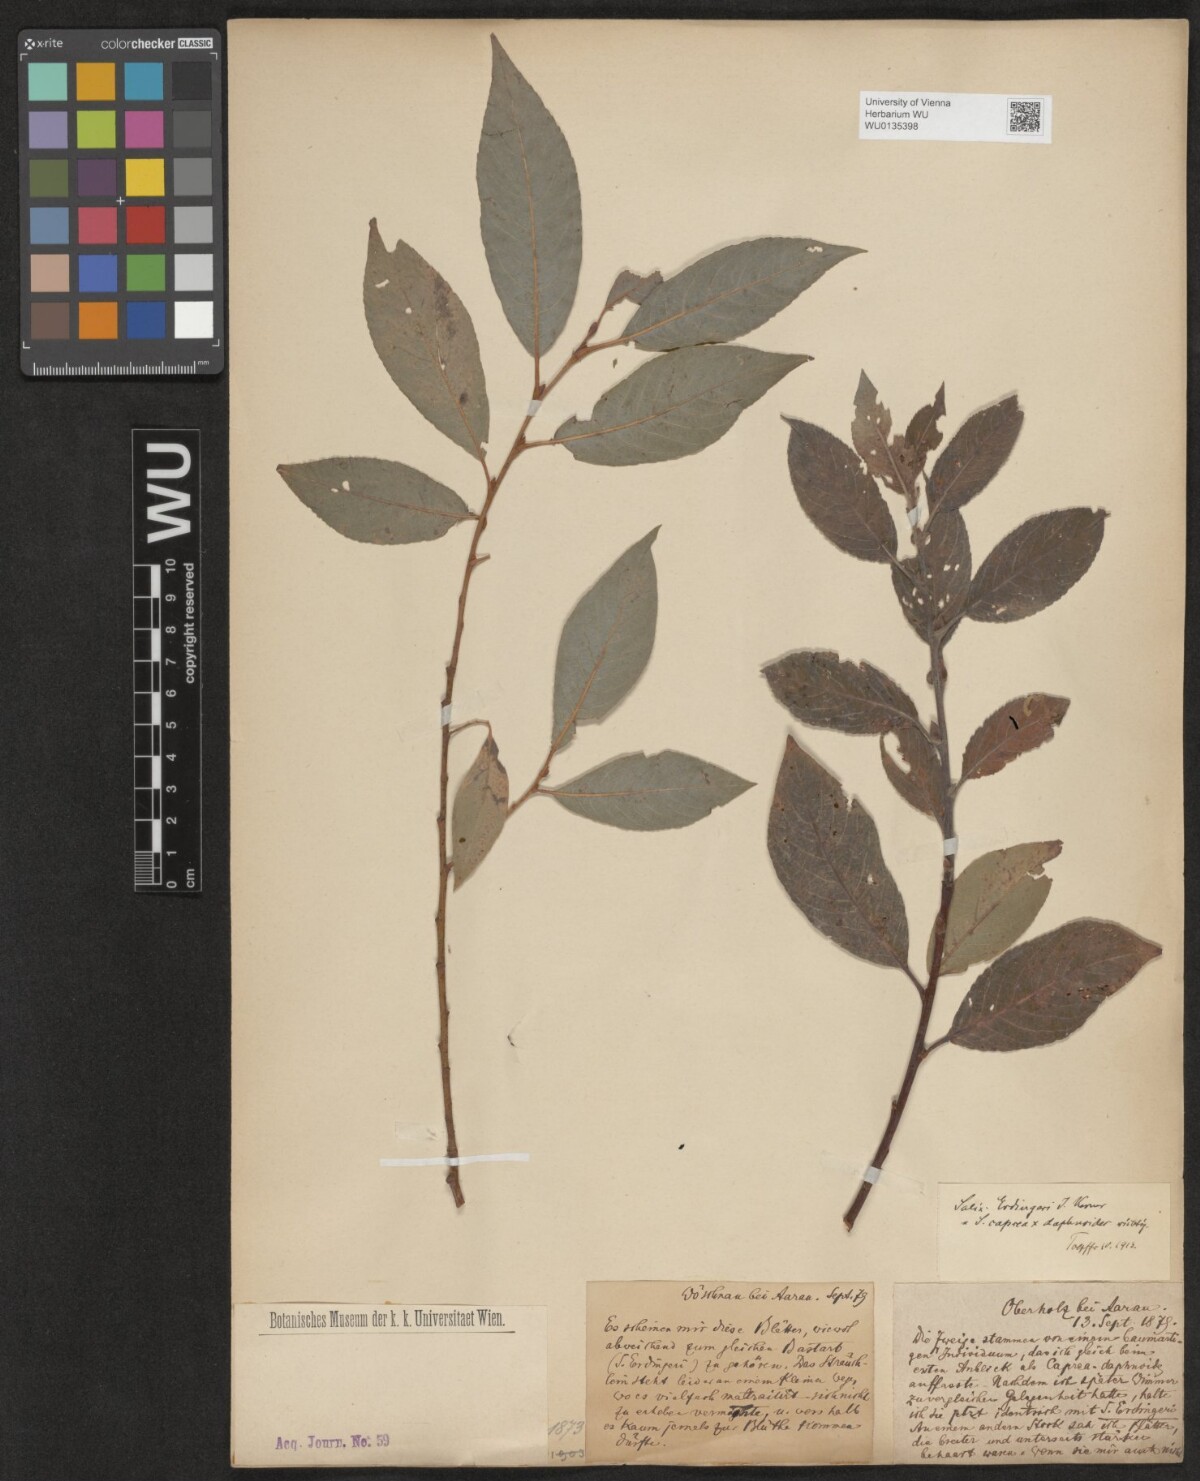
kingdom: Plantae
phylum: Tracheophyta
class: Magnoliopsida
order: Malpighiales
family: Salicaceae
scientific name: Salicaceae
